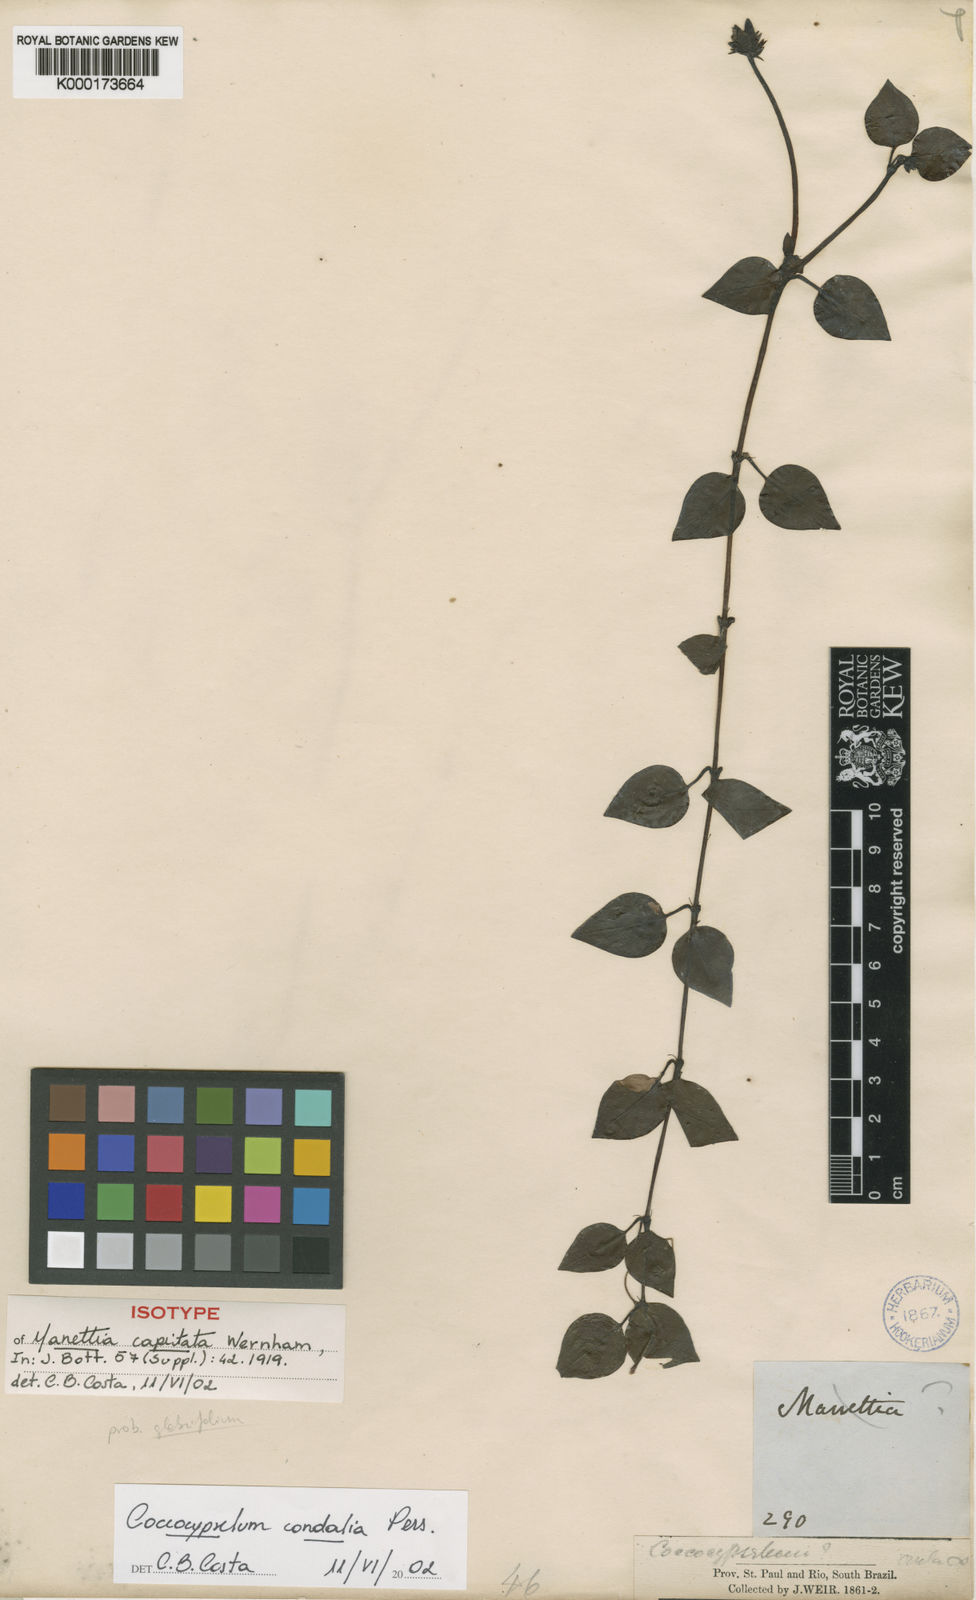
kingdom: Plantae
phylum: Tracheophyta
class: Magnoliopsida
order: Gentianales
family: Rubiaceae
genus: Coccocypselum
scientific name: Coccocypselum condalia
